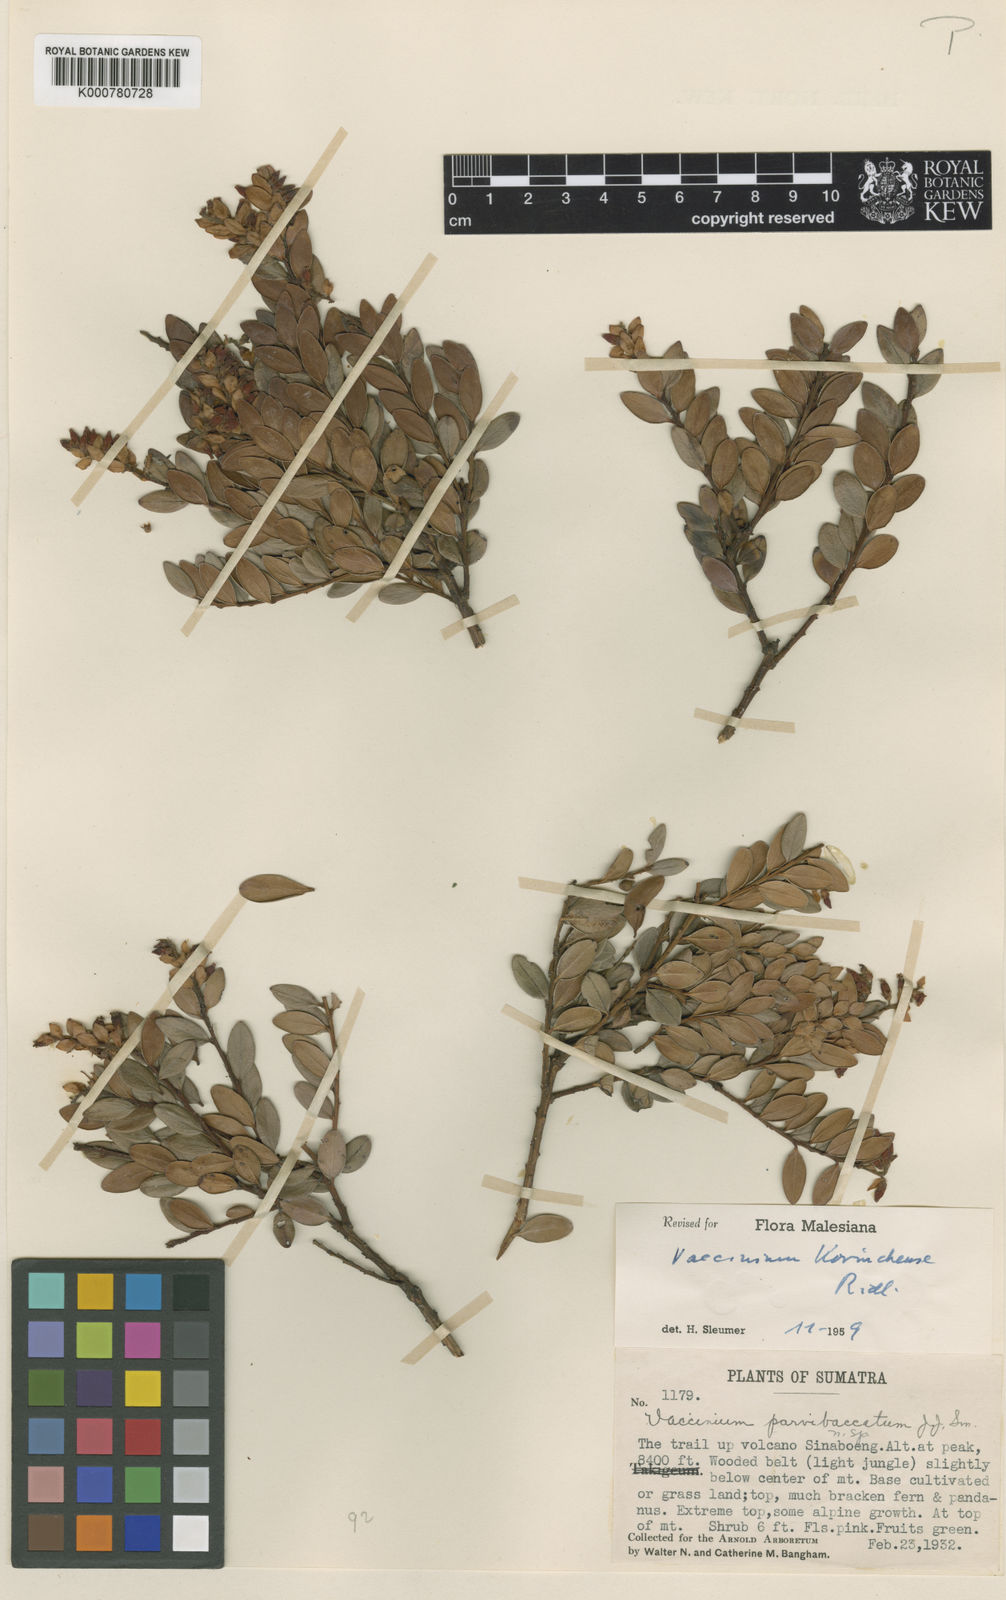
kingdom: Plantae
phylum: Tracheophyta
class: Magnoliopsida
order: Ericales
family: Ericaceae
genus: Vaccinium
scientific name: Vaccinium korinchense
